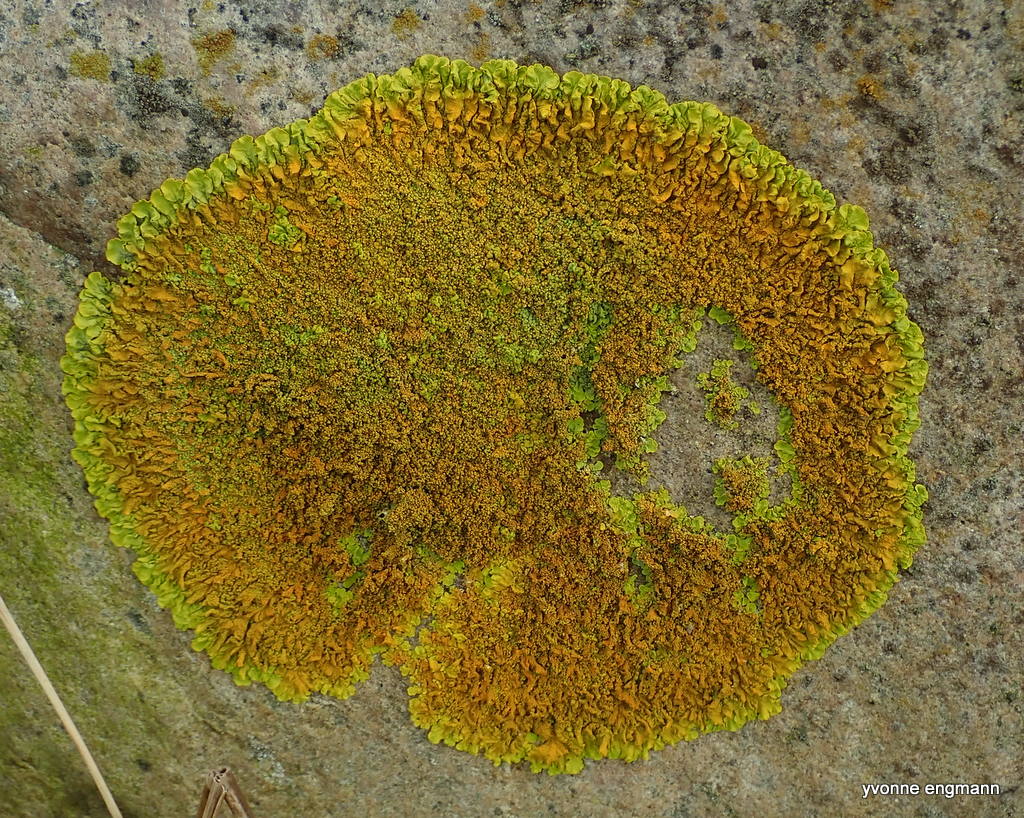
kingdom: Fungi
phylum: Ascomycota
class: Lecanoromycetes
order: Teloschistales
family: Teloschistaceae
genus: Xanthoria
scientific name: Xanthoria calcicola
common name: vortet væggelav
